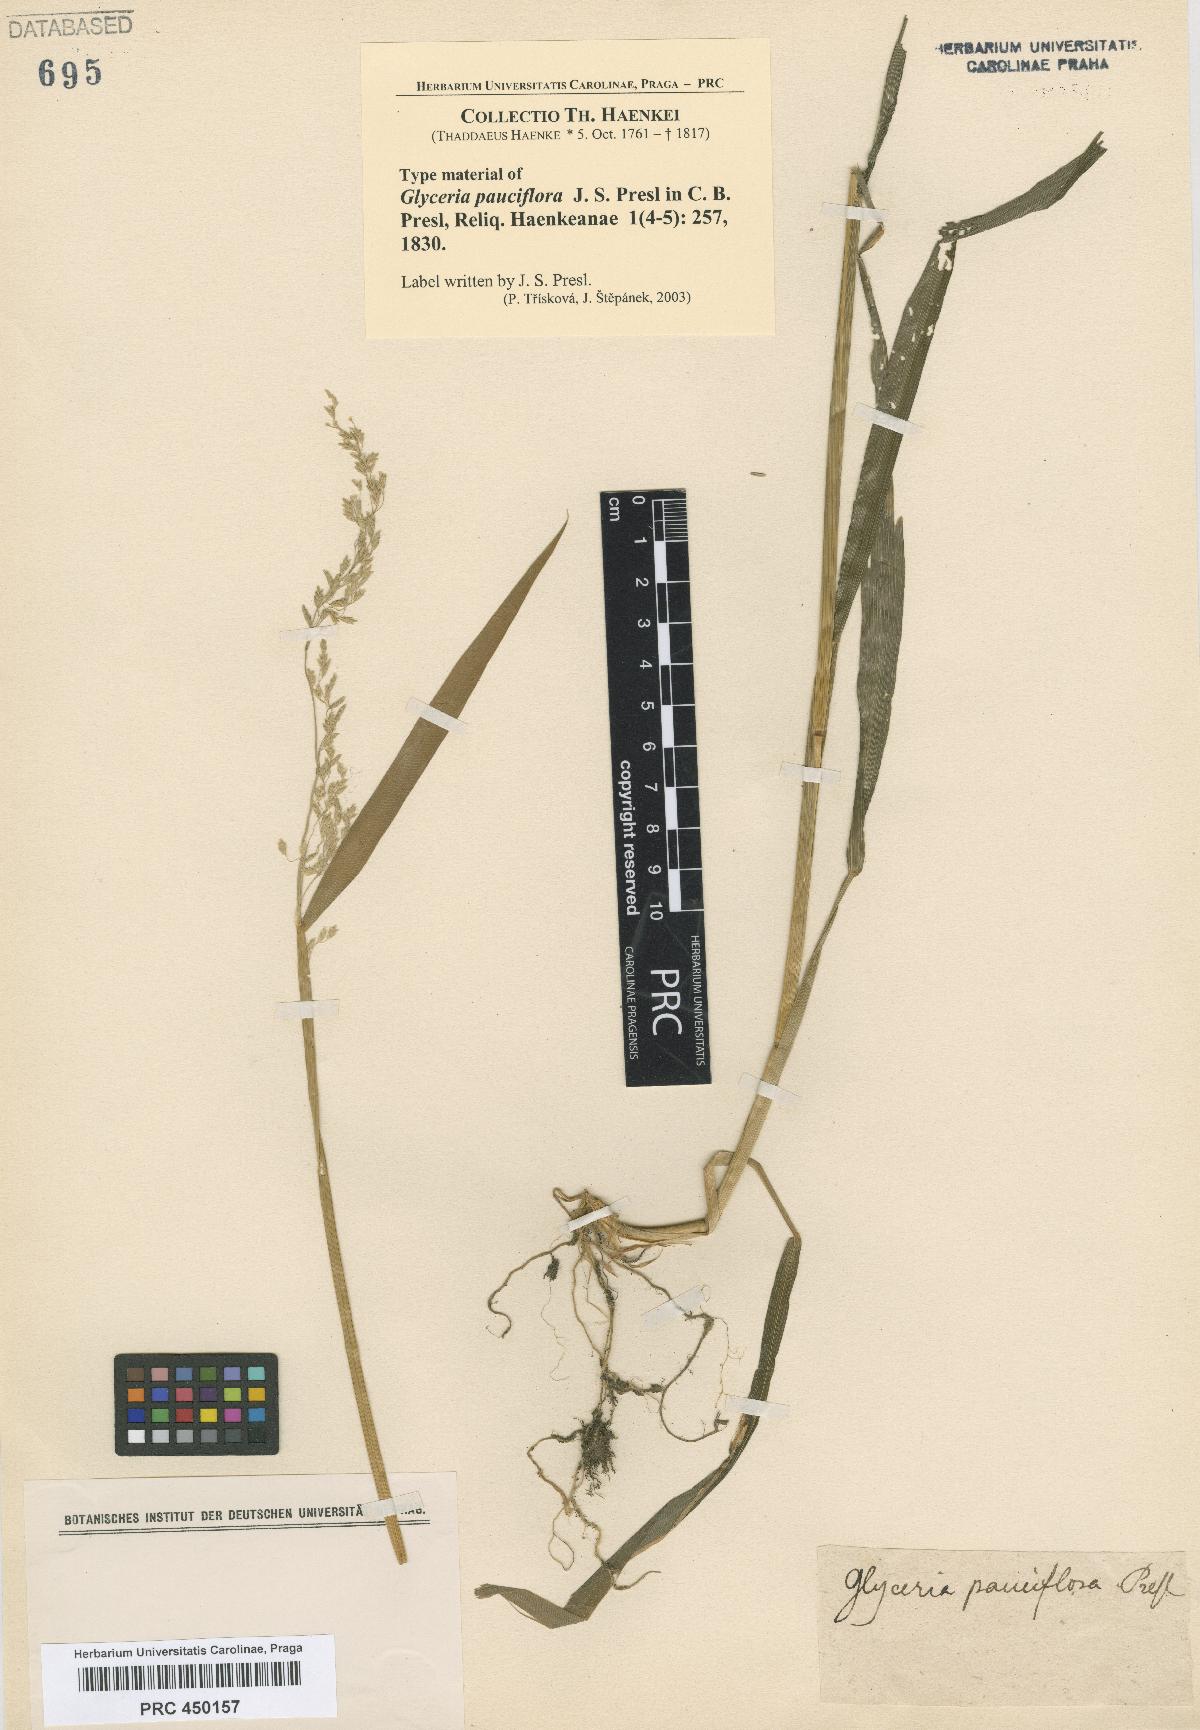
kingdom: Plantae
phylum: Tracheophyta
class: Liliopsida
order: Poales
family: Poaceae
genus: Torreyochloa
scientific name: Torreyochloa pallida
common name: Pale false mannagrass
